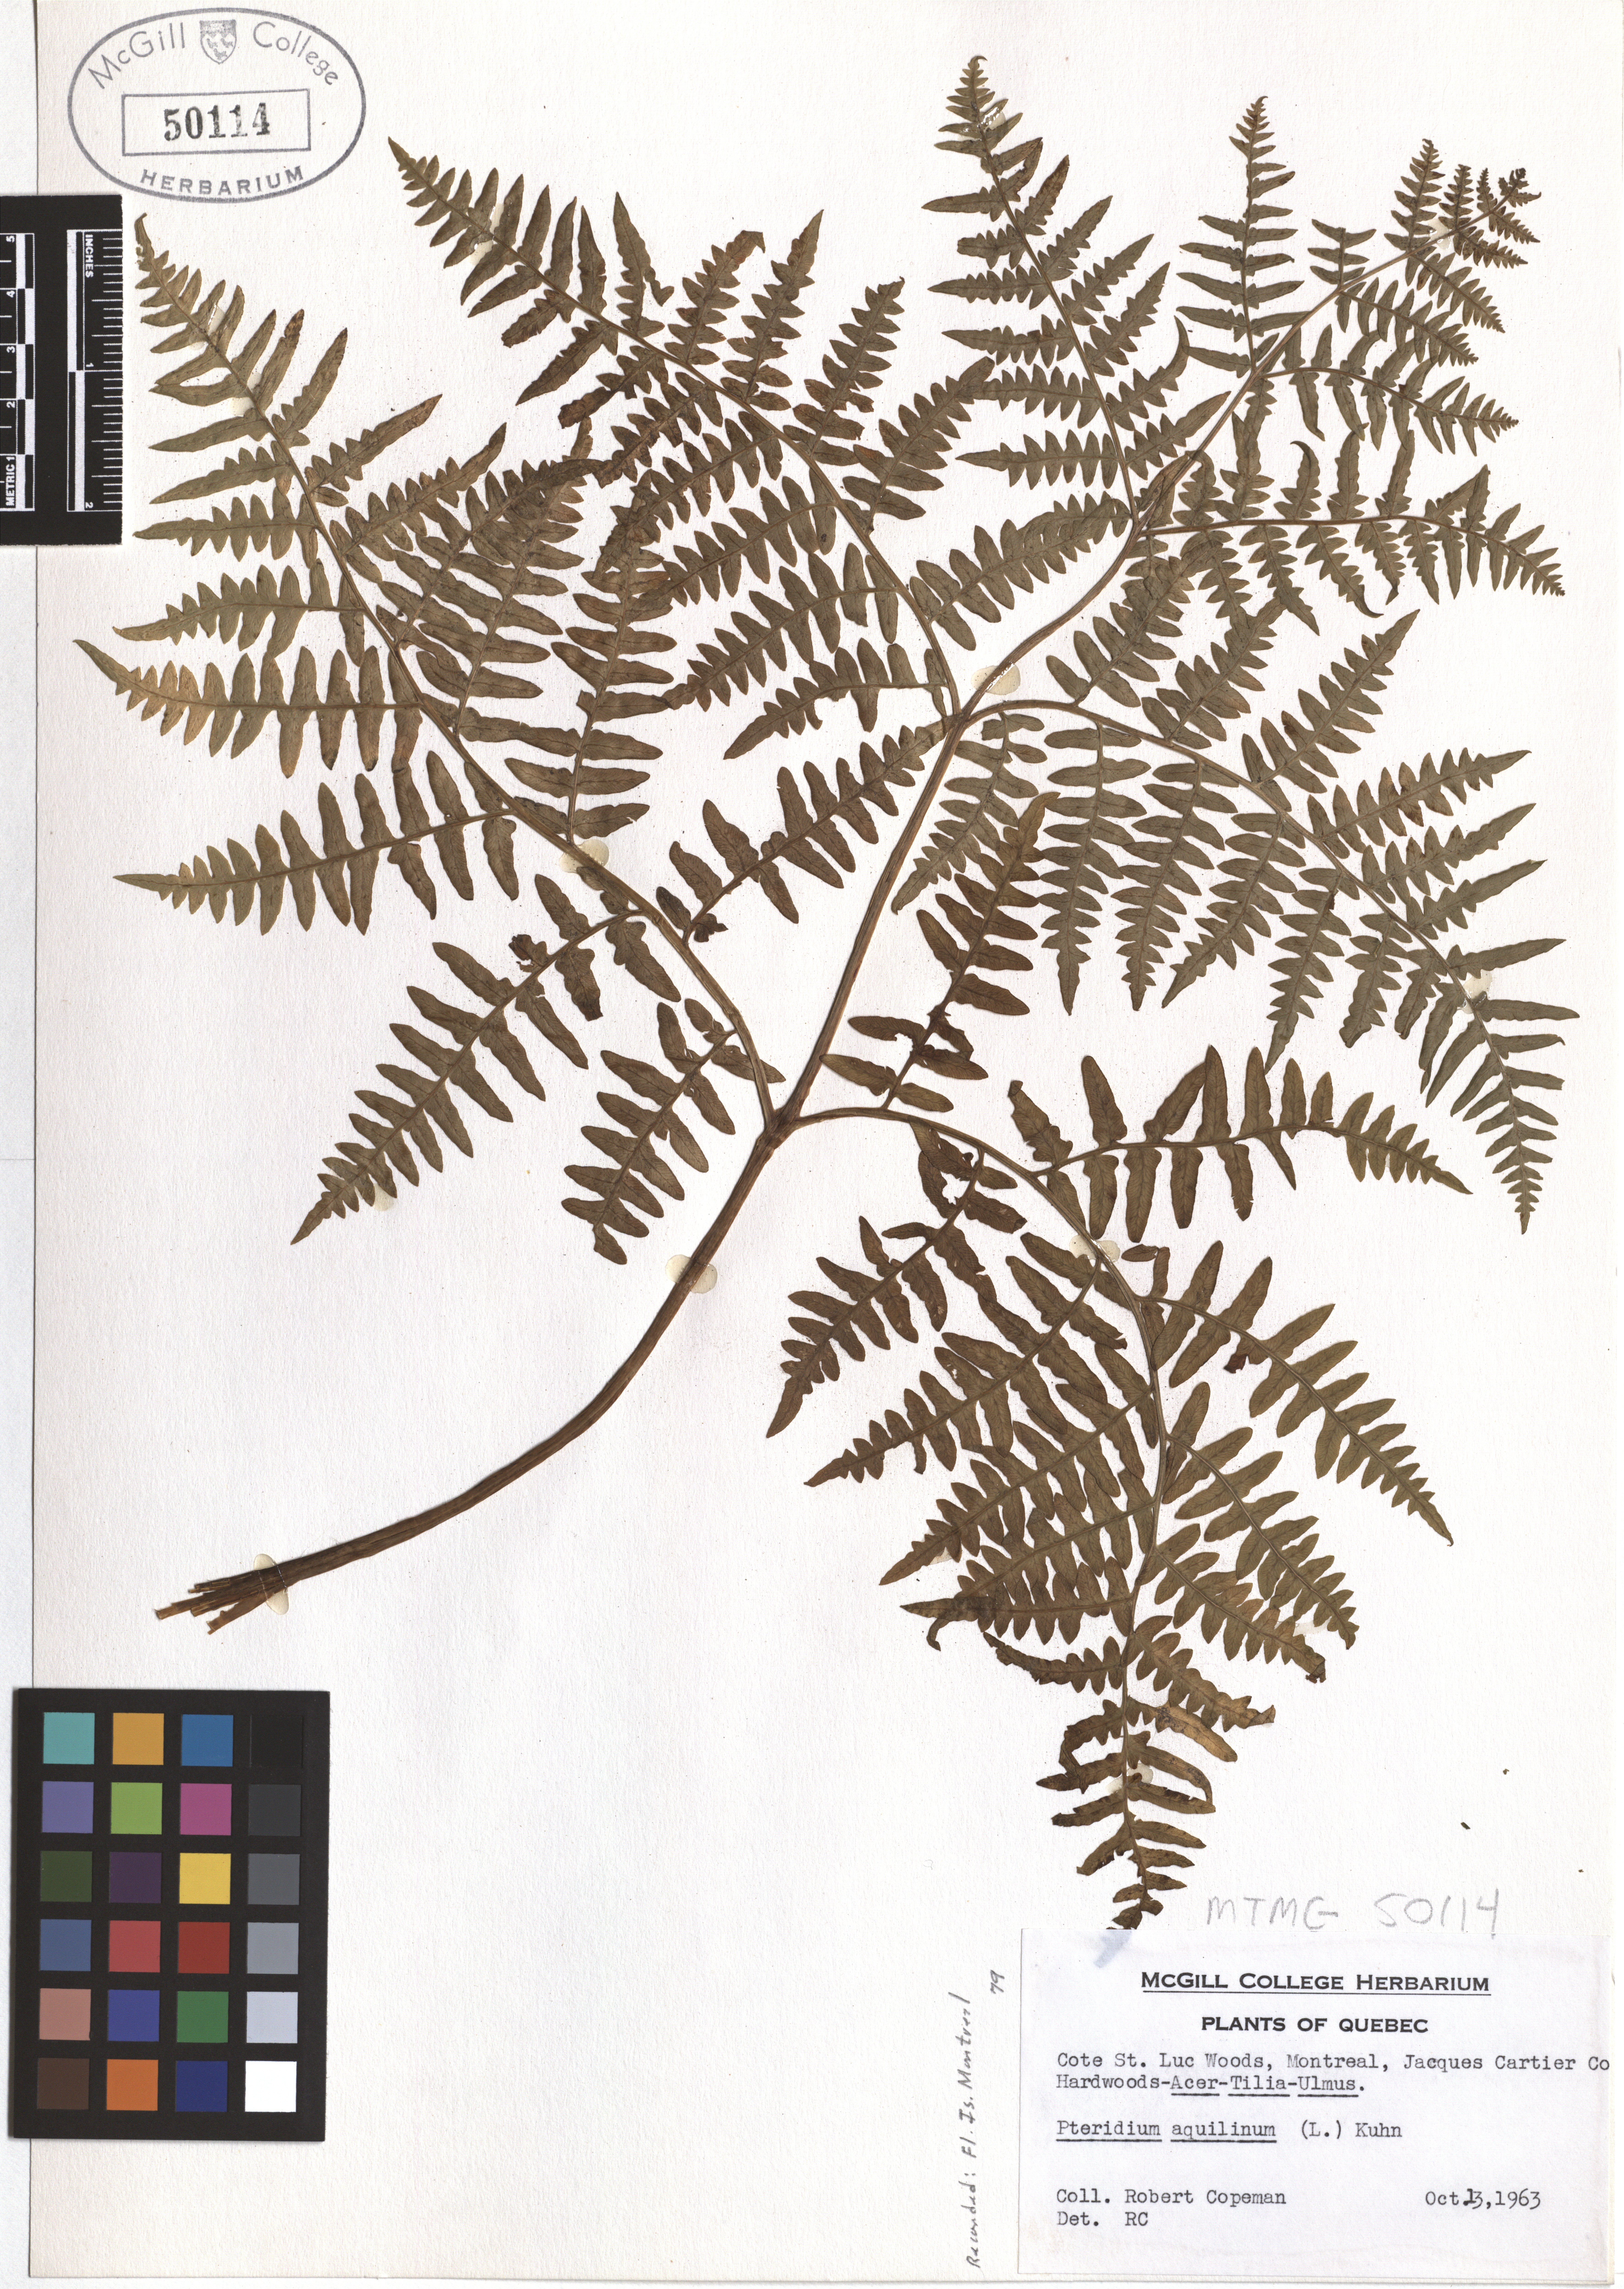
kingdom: Plantae
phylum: Tracheophyta
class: Polypodiopsida
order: Polypodiales
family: Dennstaedtiaceae
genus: Pteridium
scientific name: Pteridium aquilinum
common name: Bracken
